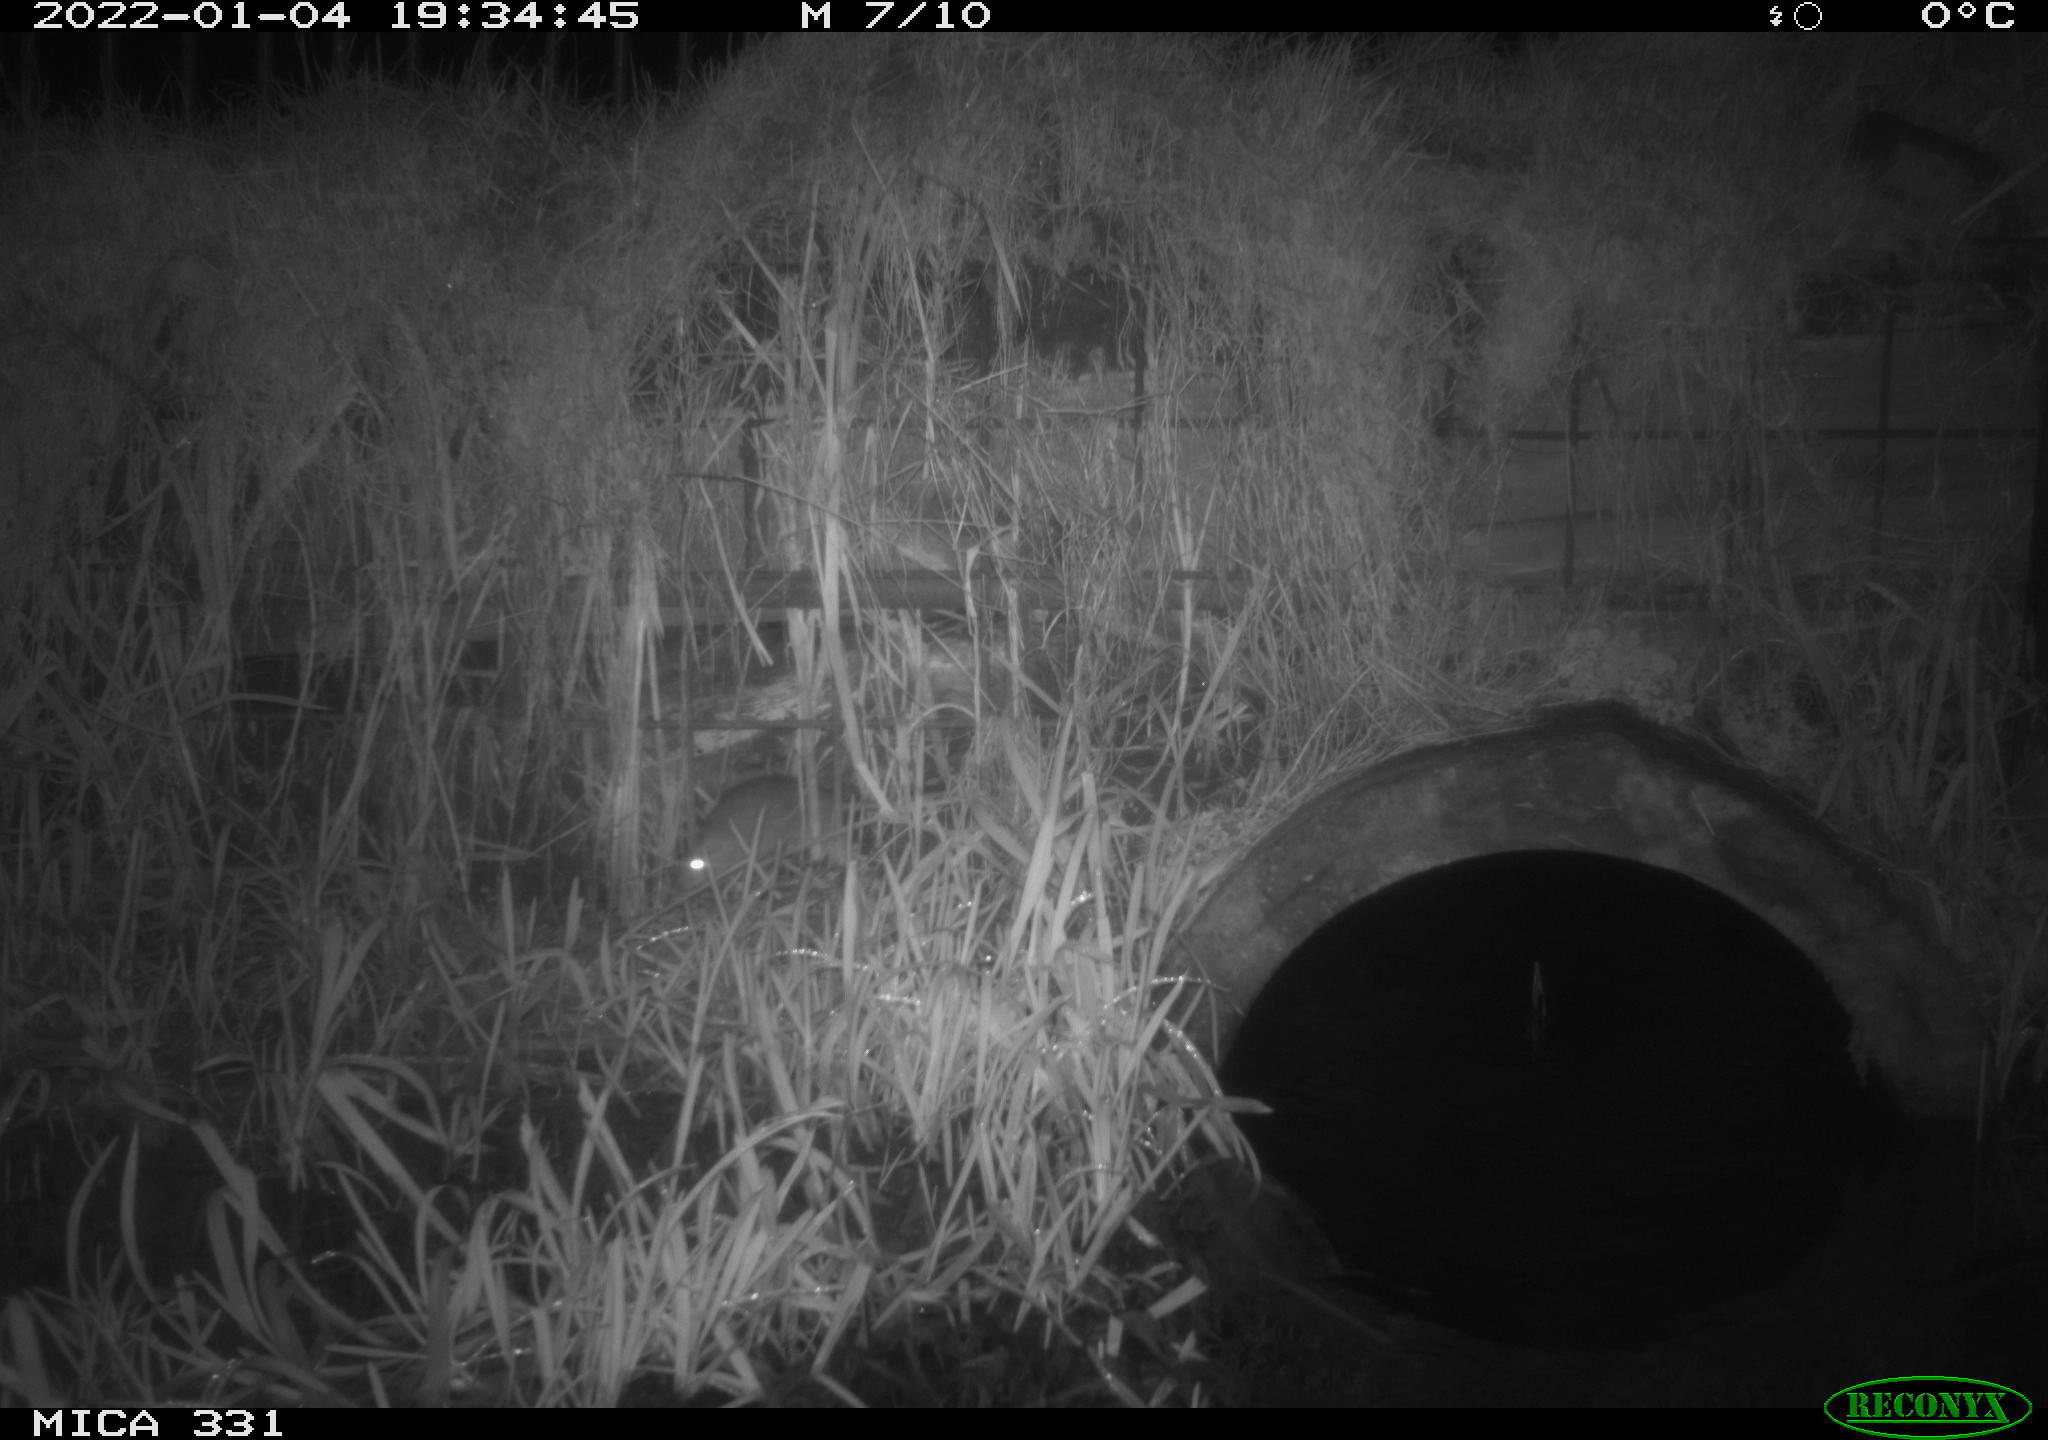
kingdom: Animalia
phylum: Chordata
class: Mammalia
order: Rodentia
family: Muridae
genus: Rattus
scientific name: Rattus norvegicus
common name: Brown rat
